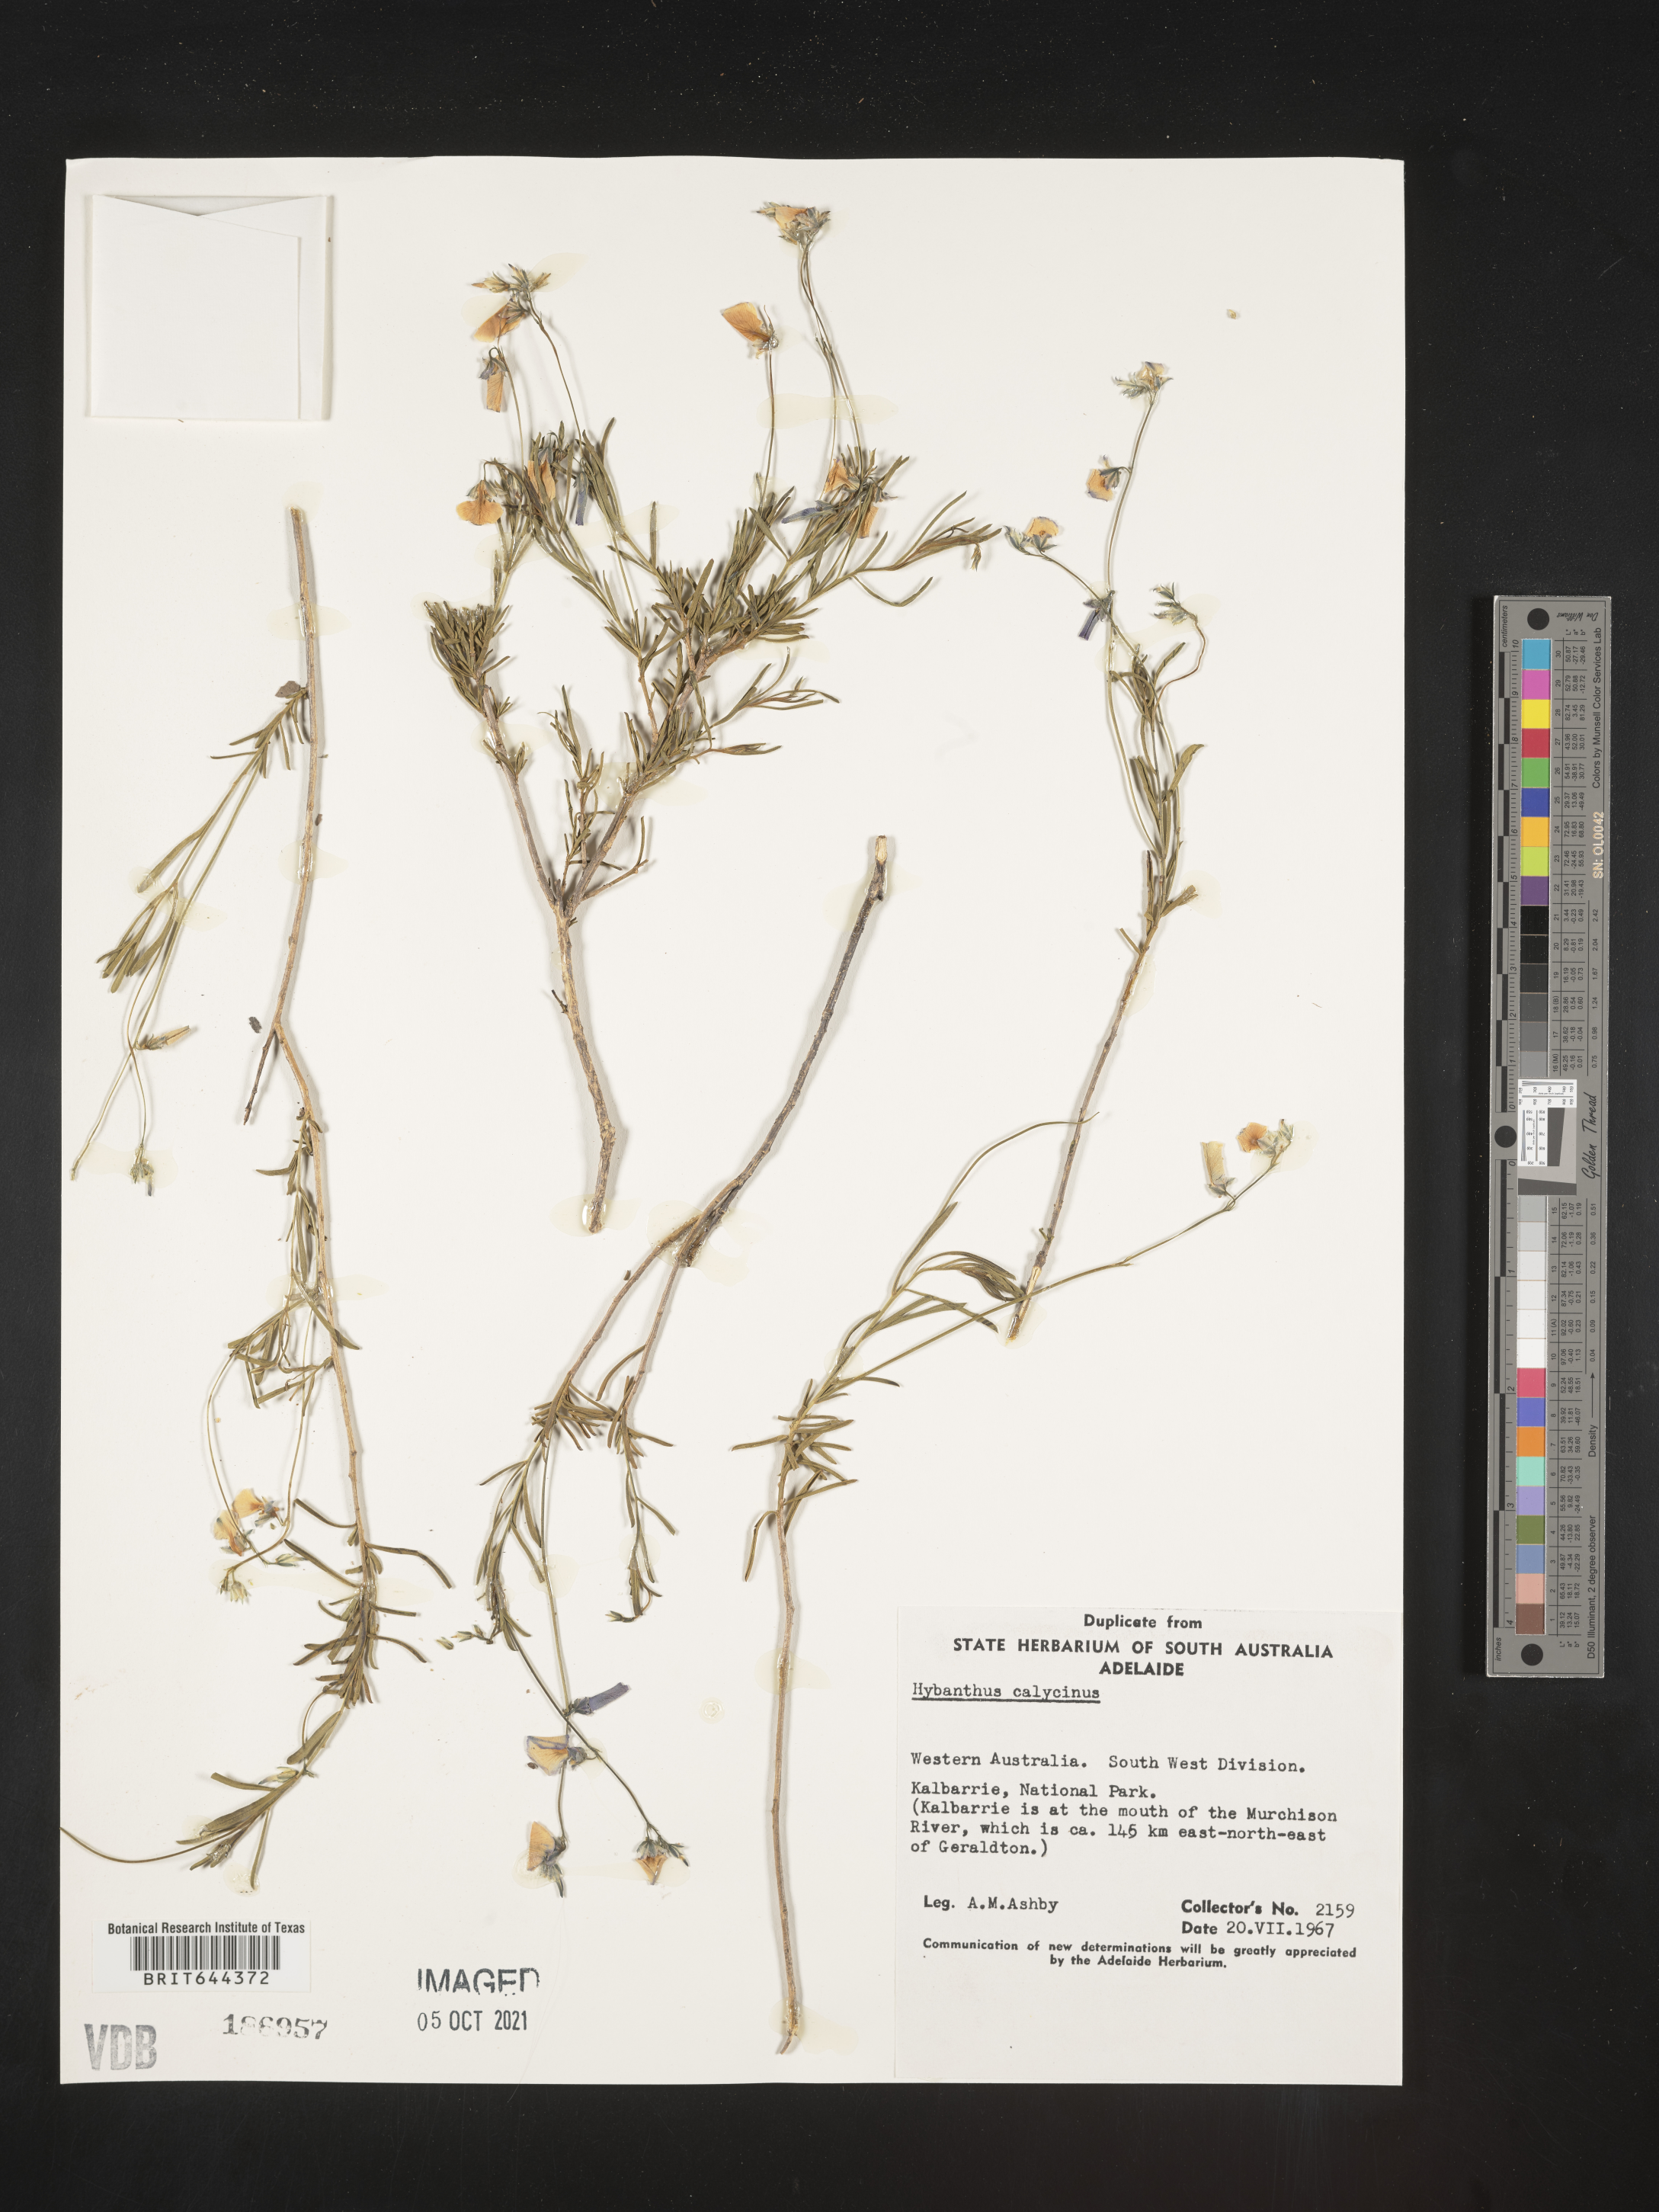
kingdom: Plantae
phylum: Tracheophyta
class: Magnoliopsida
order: Malpighiales
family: Violaceae
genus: Hybanthus
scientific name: Hybanthus
